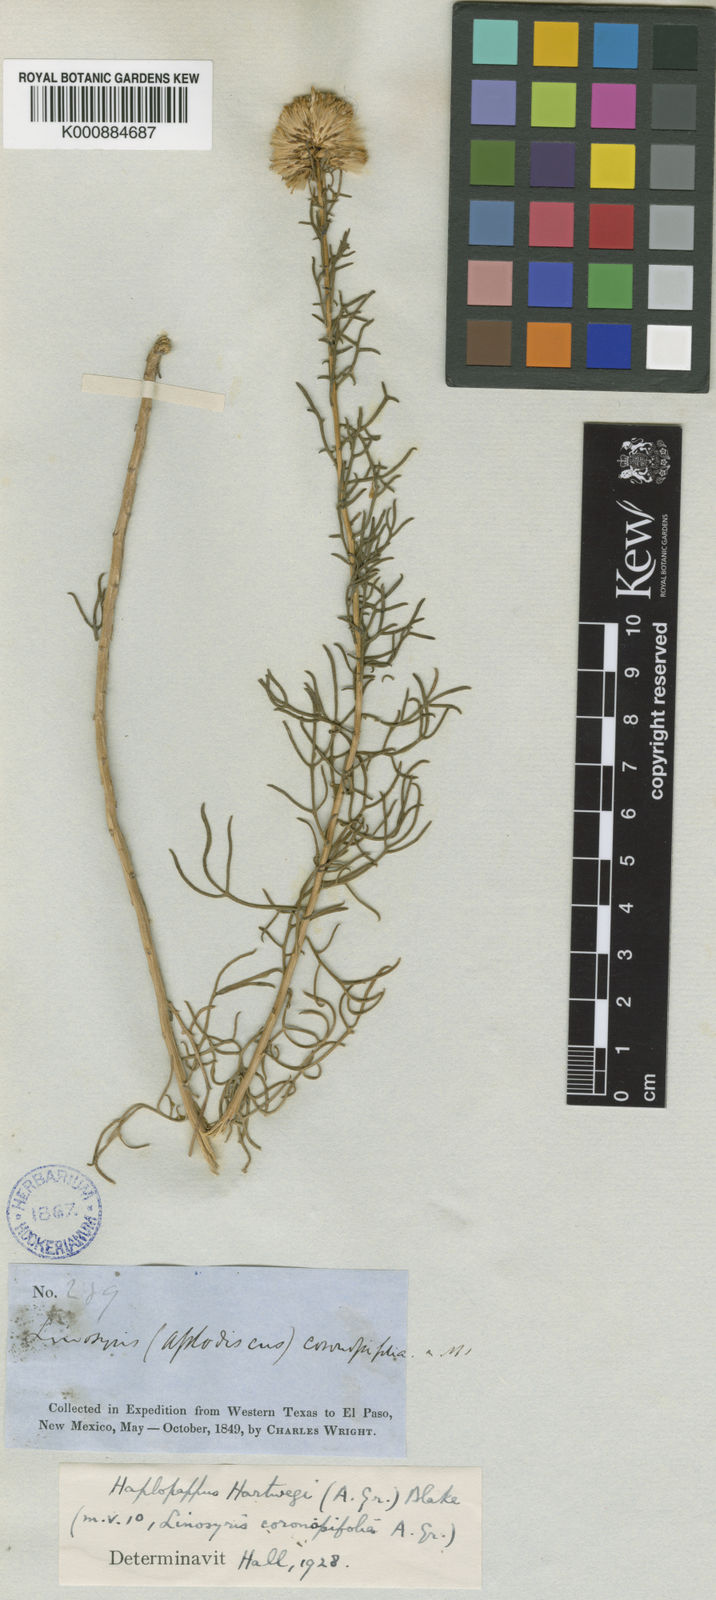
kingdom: Plantae
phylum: Tracheophyta
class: Magnoliopsida
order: Asterales
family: Asteraceae
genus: Isocoma
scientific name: Isocoma hartwegii
